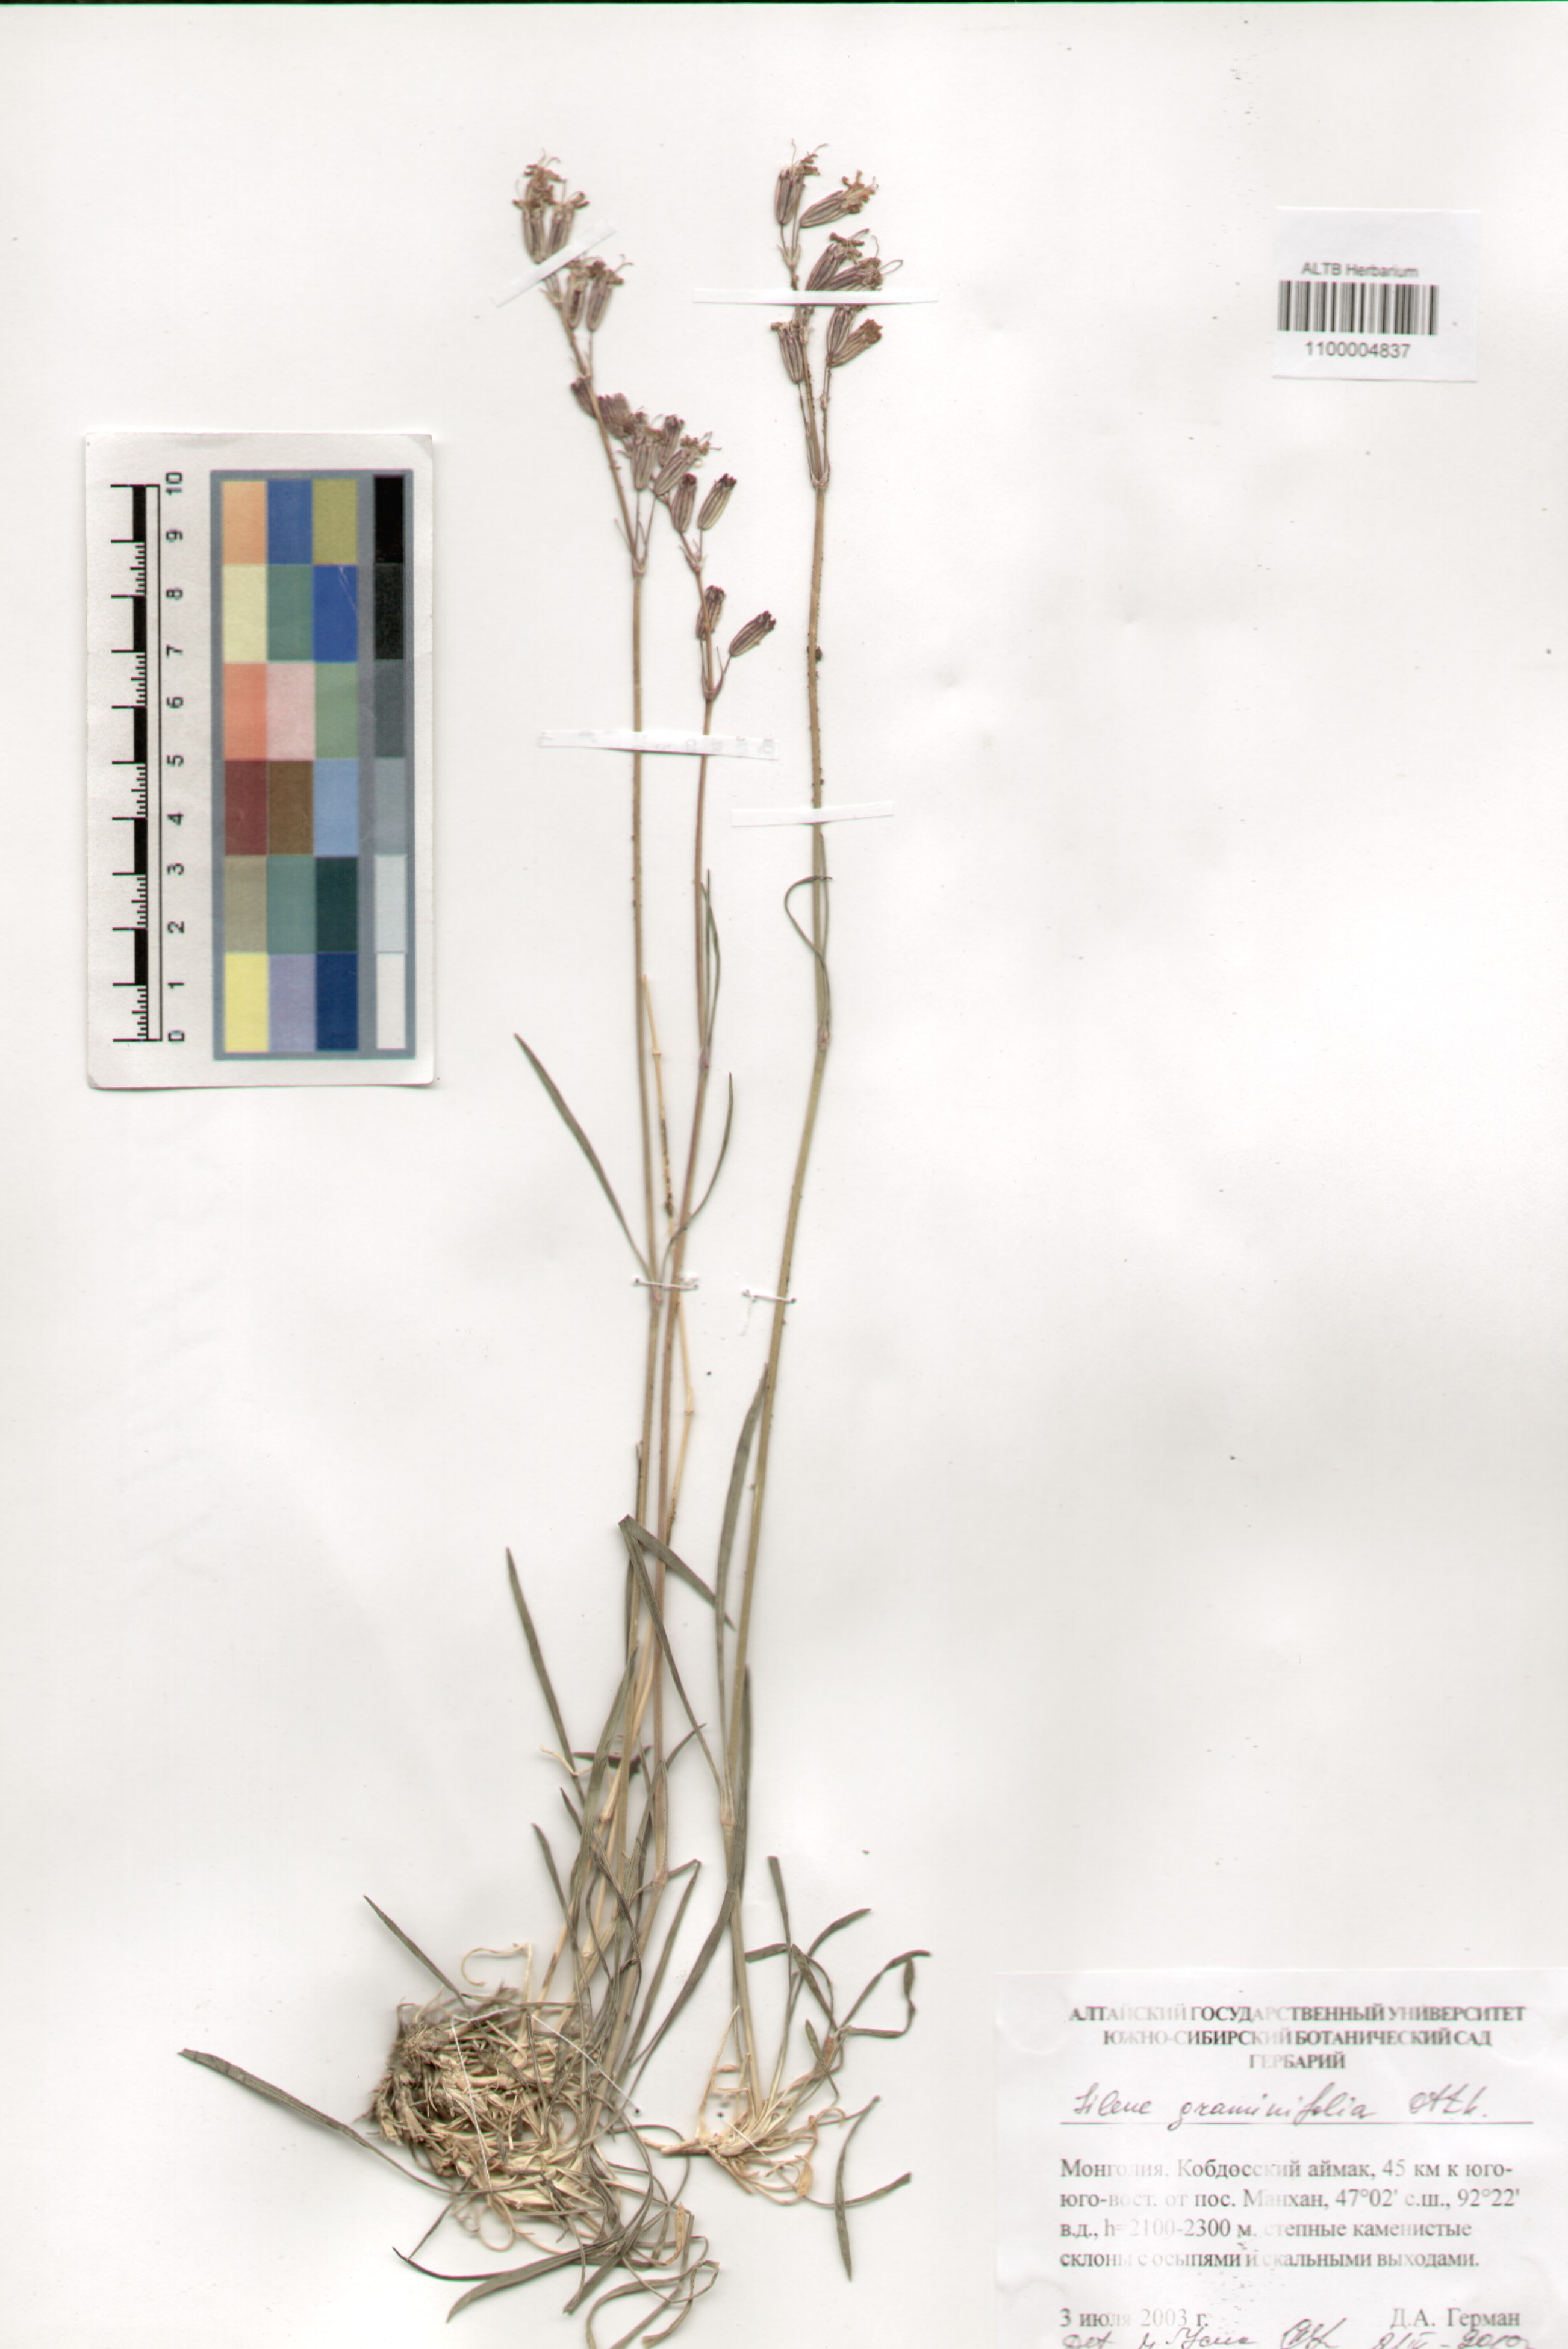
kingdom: Plantae
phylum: Tracheophyta
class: Magnoliopsida
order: Caryophyllales
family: Caryophyllaceae
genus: Silene
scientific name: Silene graminifolia
